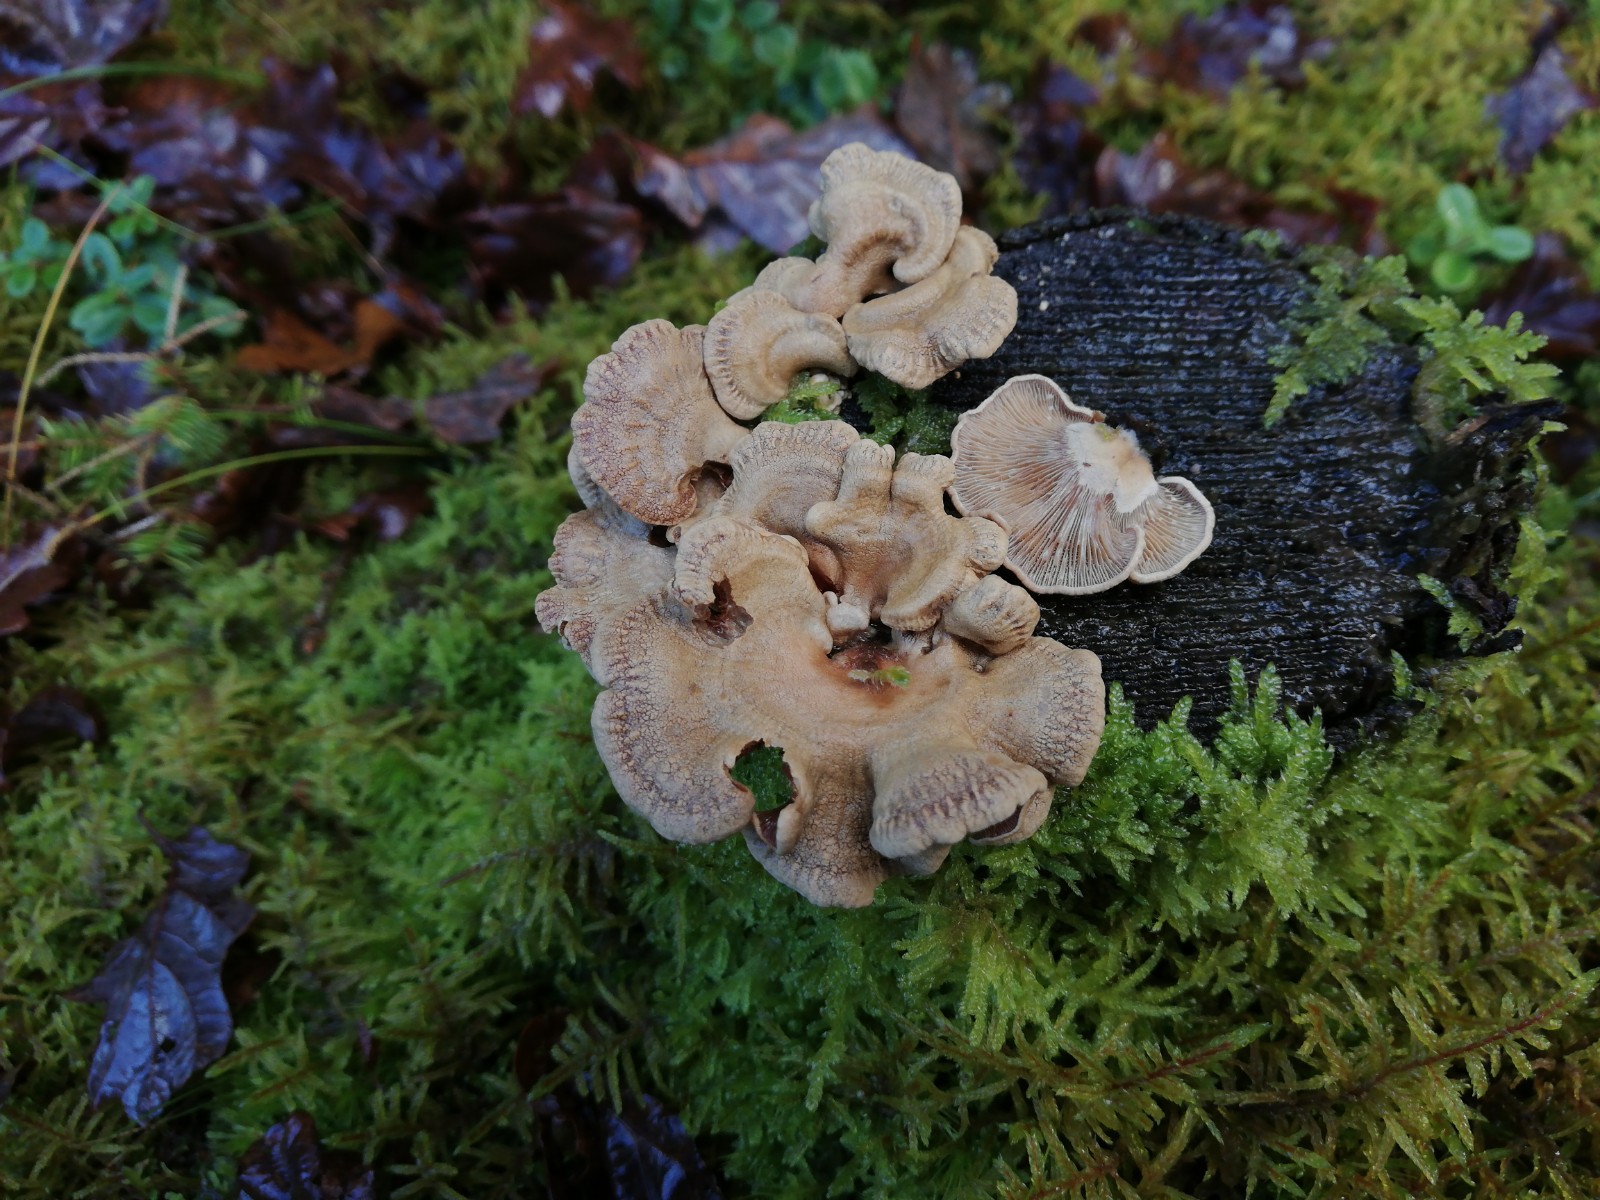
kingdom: Fungi
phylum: Basidiomycota
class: Agaricomycetes
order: Agaricales
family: Mycenaceae
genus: Panellus
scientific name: Panellus stipticus
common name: kliddet epaulethat
